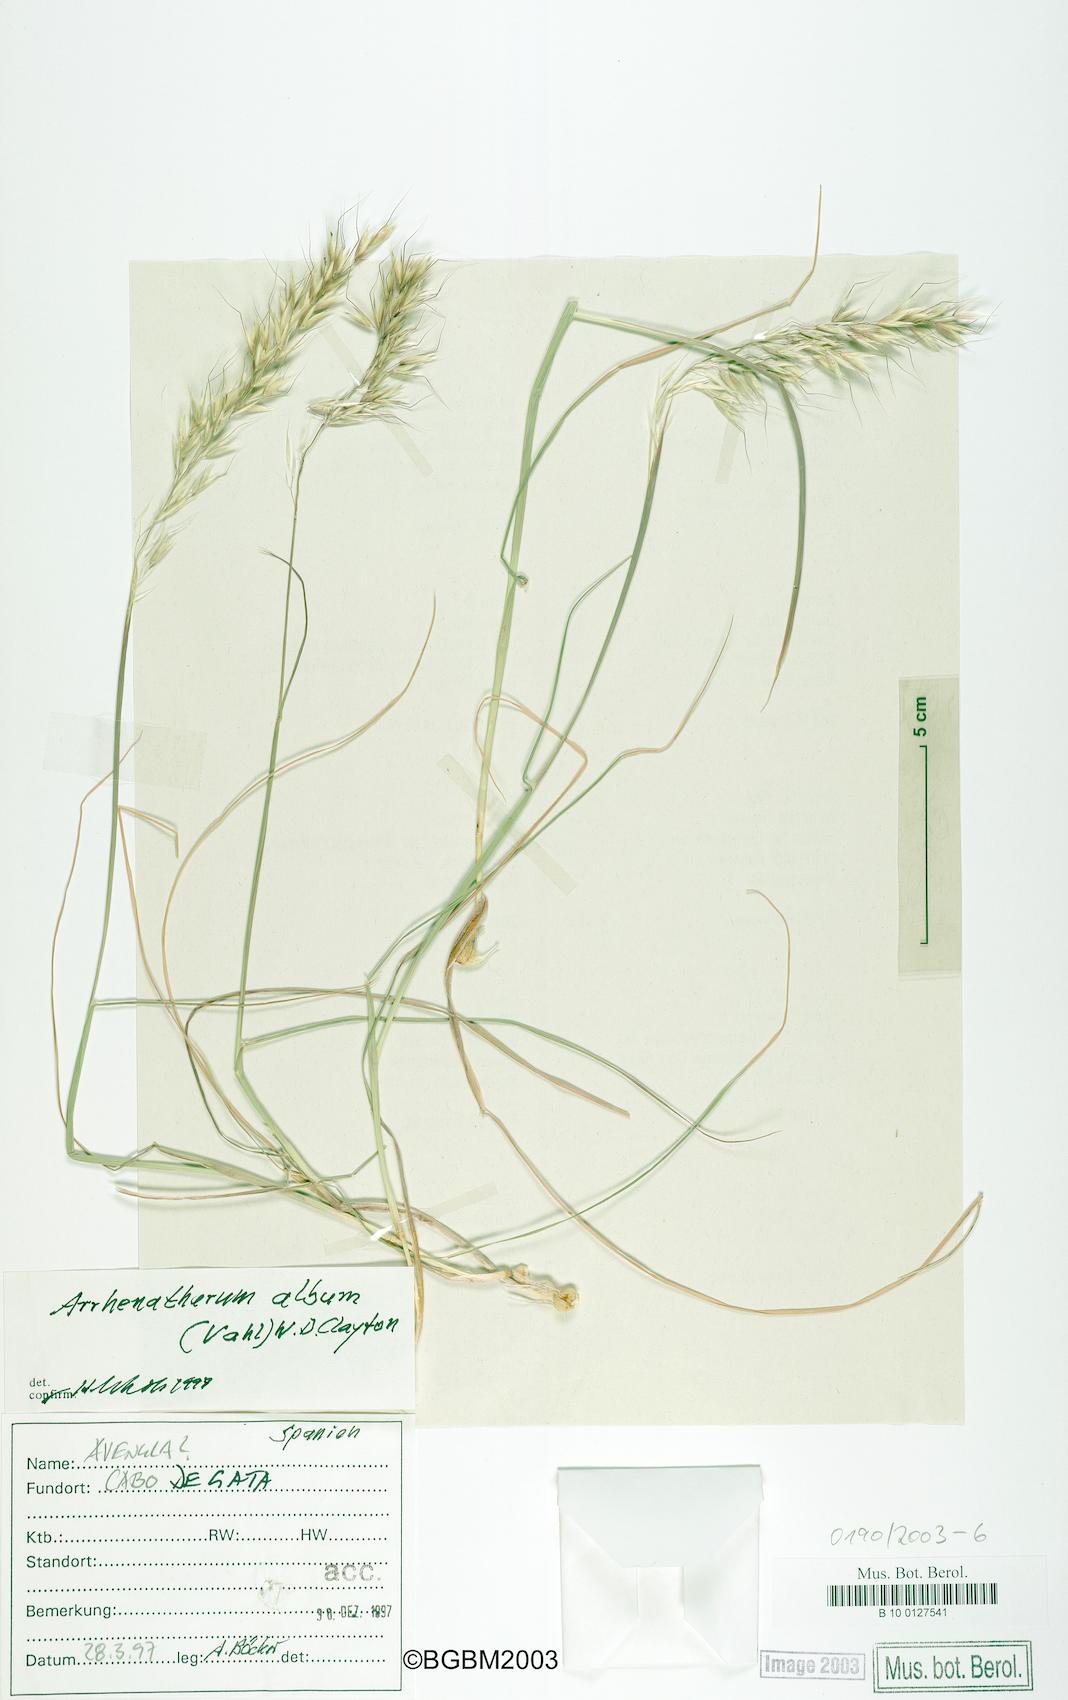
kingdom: Plantae
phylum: Tracheophyta
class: Liliopsida
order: Poales
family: Poaceae
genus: Arrhenatherum
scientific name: Arrhenatherum album
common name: Tall oat grass
